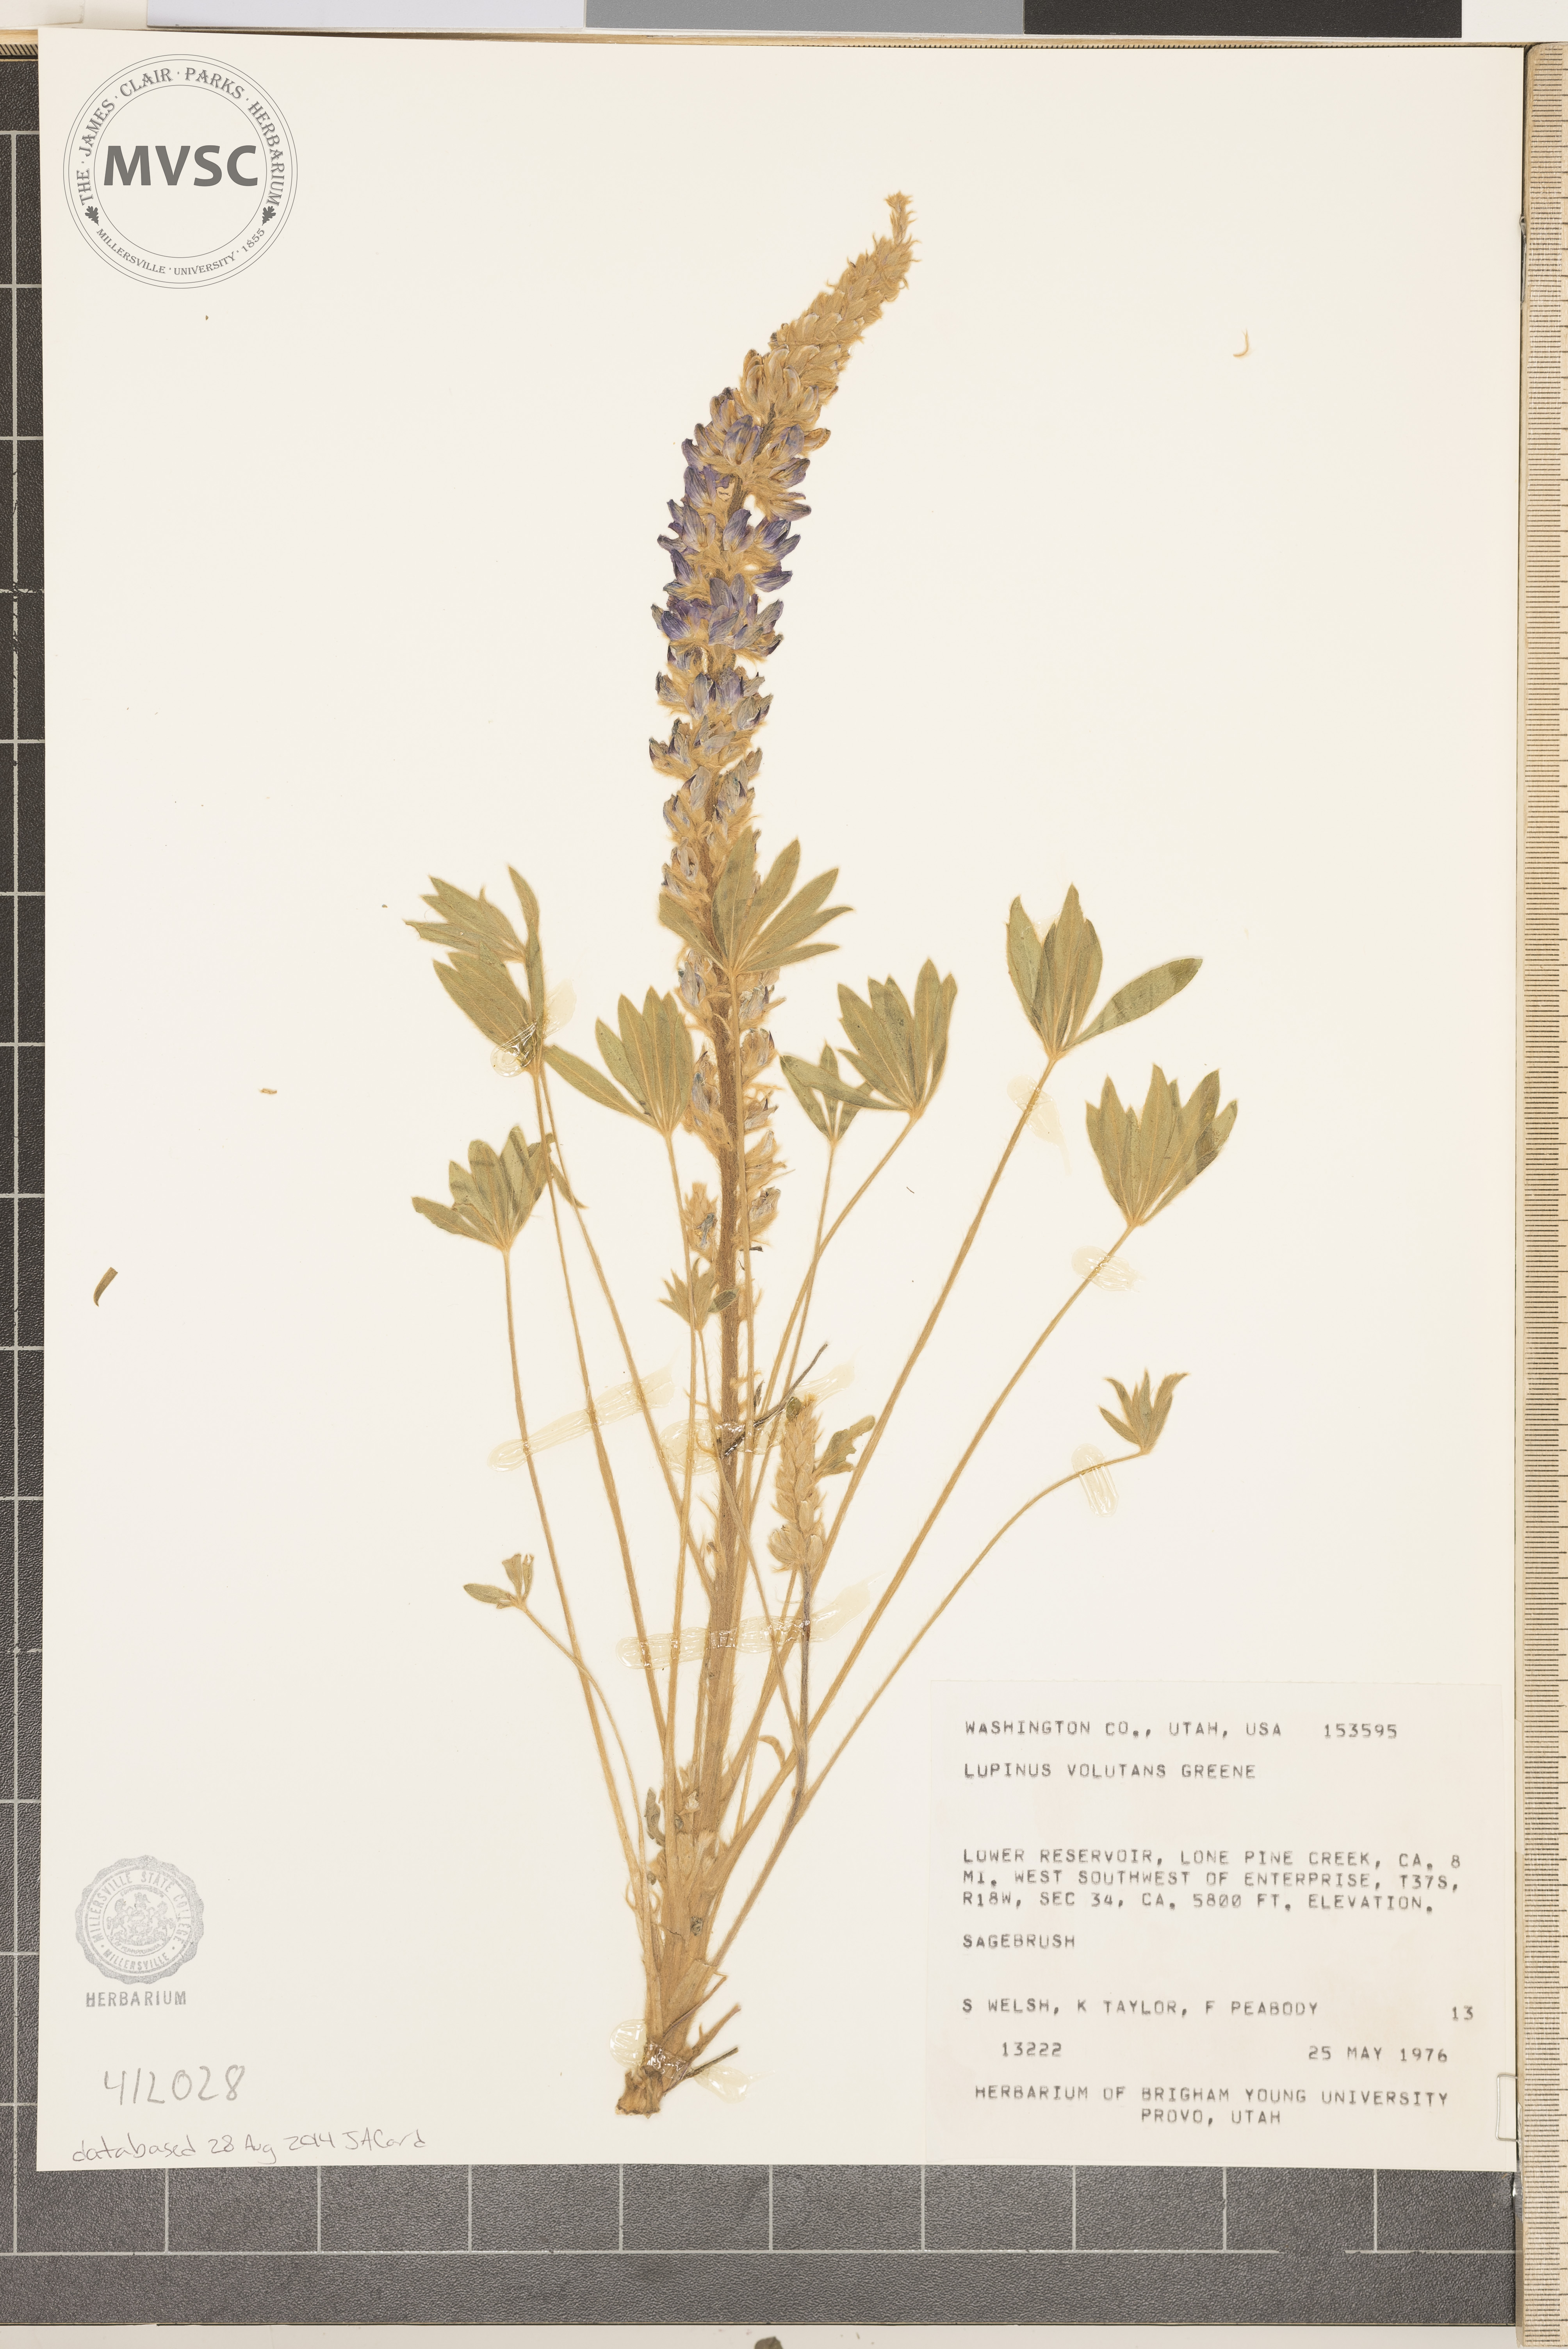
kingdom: Plantae
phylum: Tracheophyta
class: Magnoliopsida
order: Fabales
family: Fabaceae
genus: Lupinus
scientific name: Lupinus volutans
